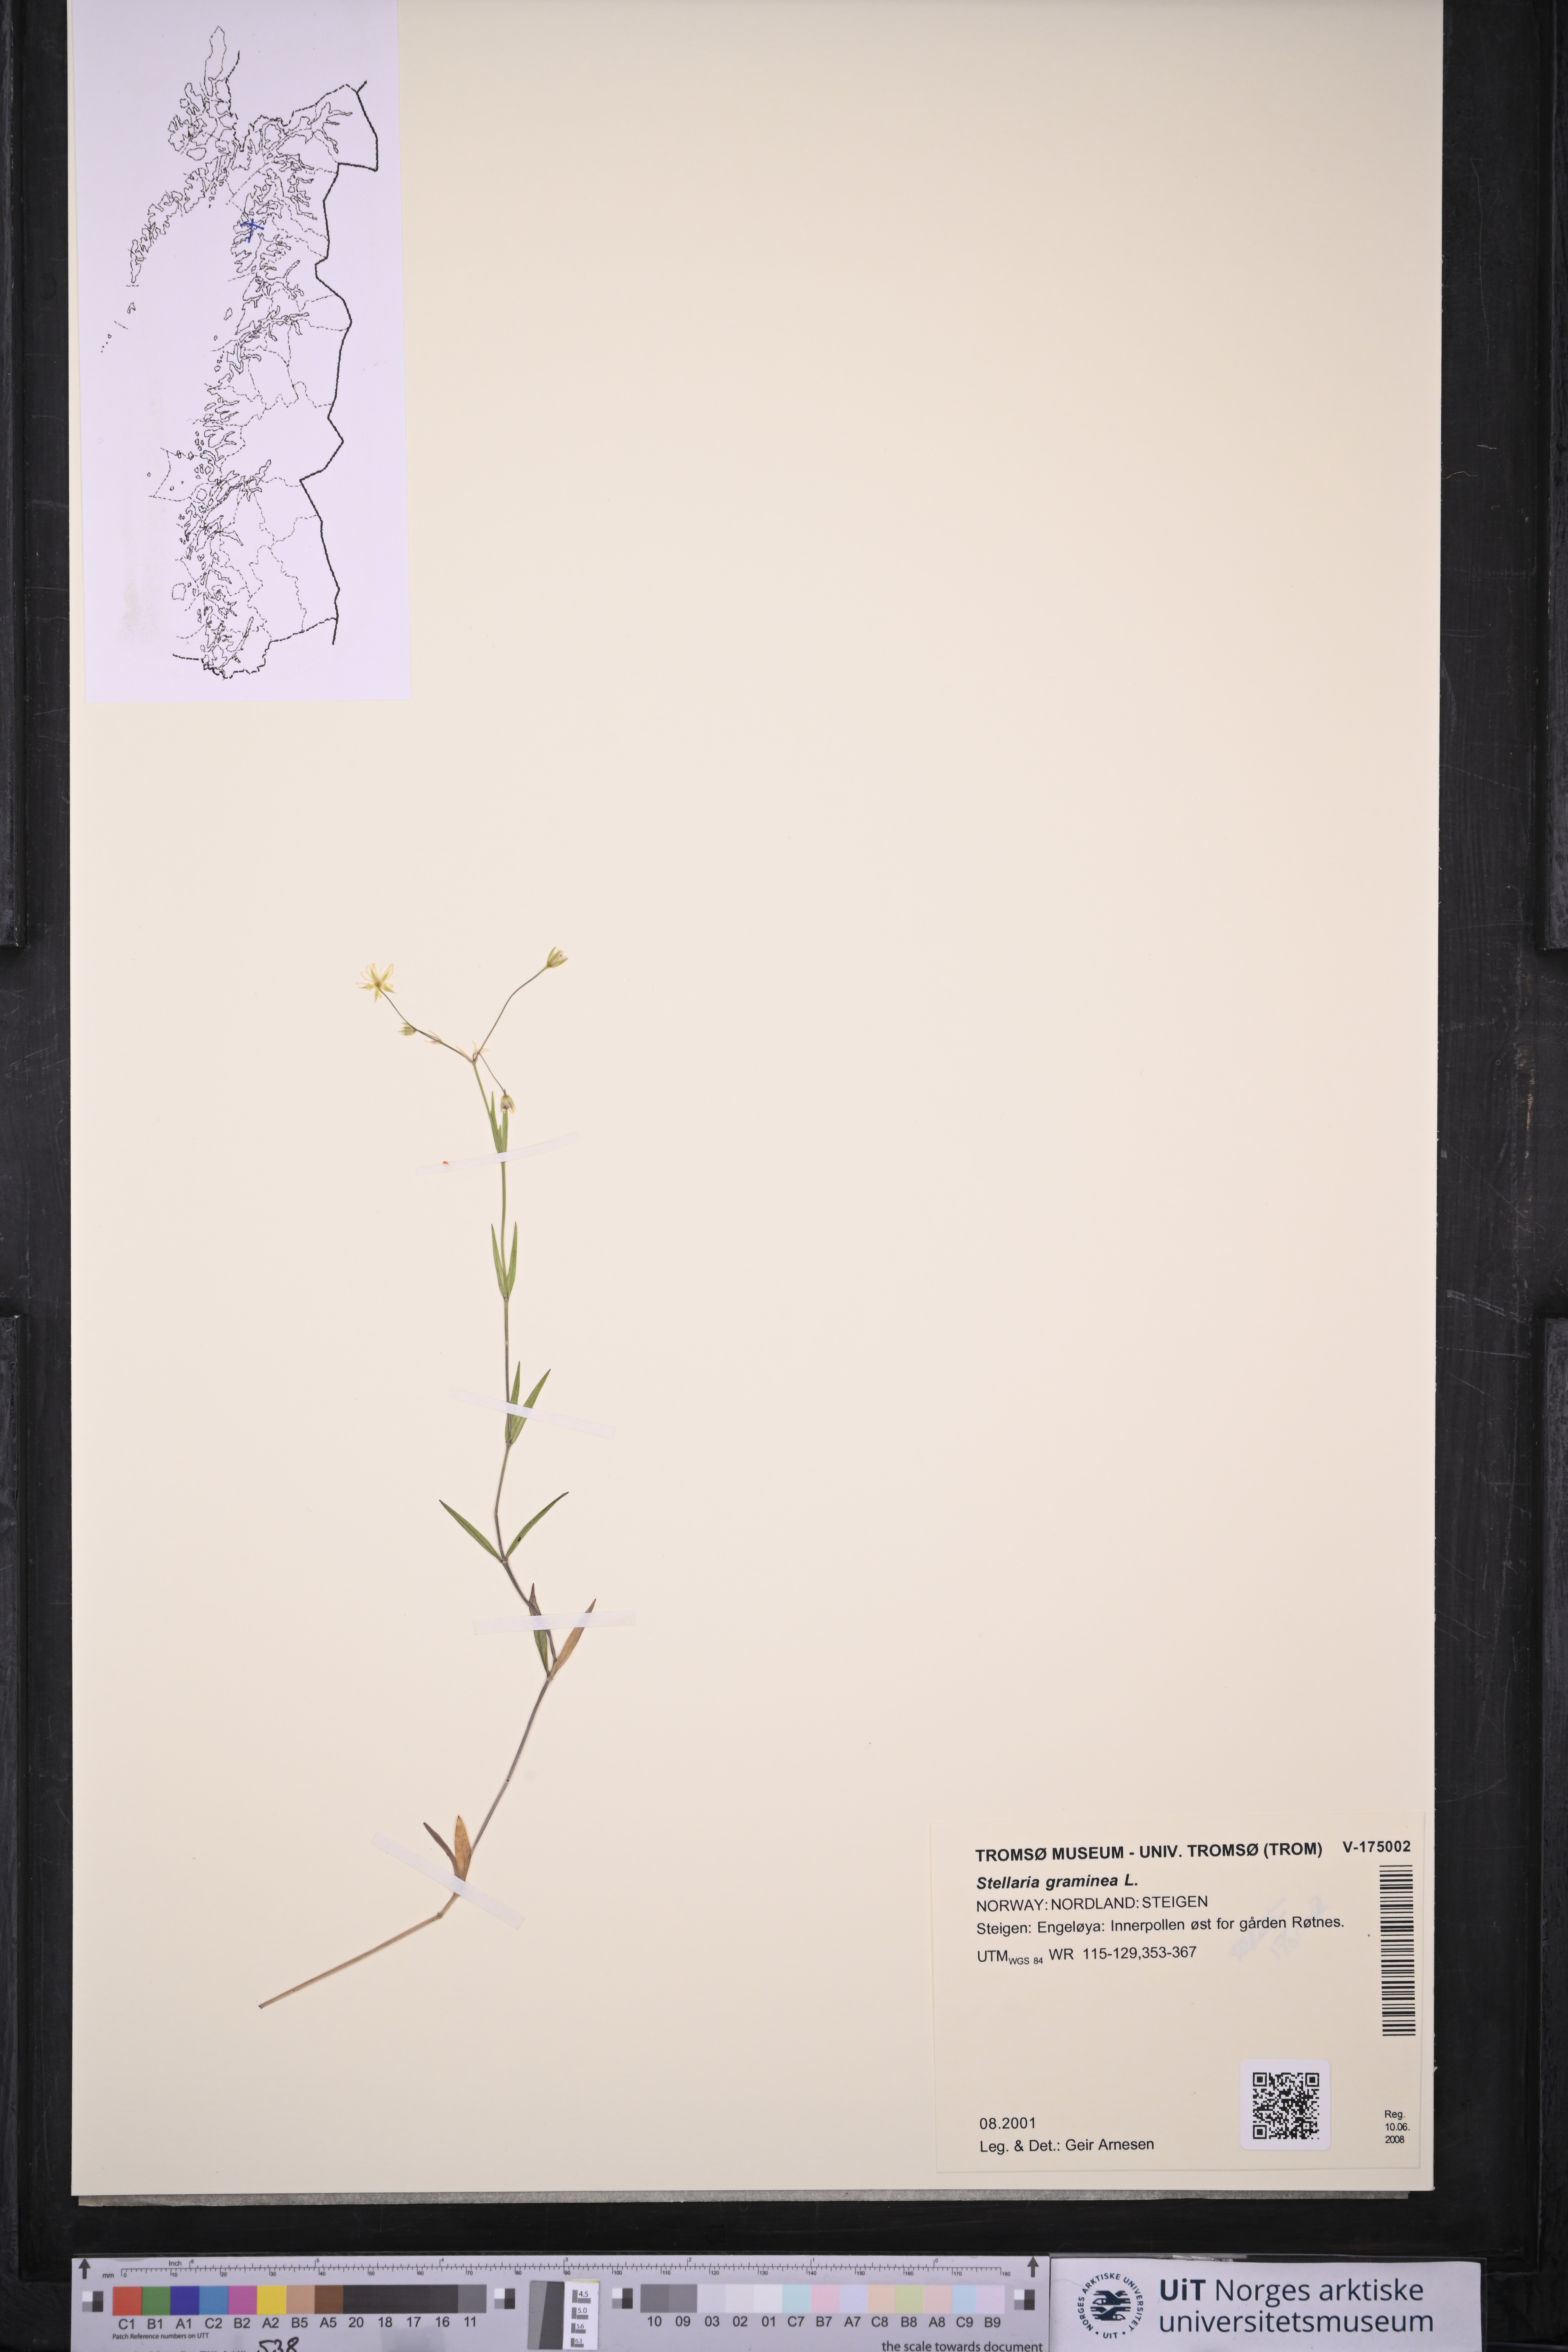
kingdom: Plantae
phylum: Tracheophyta
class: Magnoliopsida
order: Caryophyllales
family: Caryophyllaceae
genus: Stellaria
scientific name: Stellaria graminea
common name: Grass-like starwort
